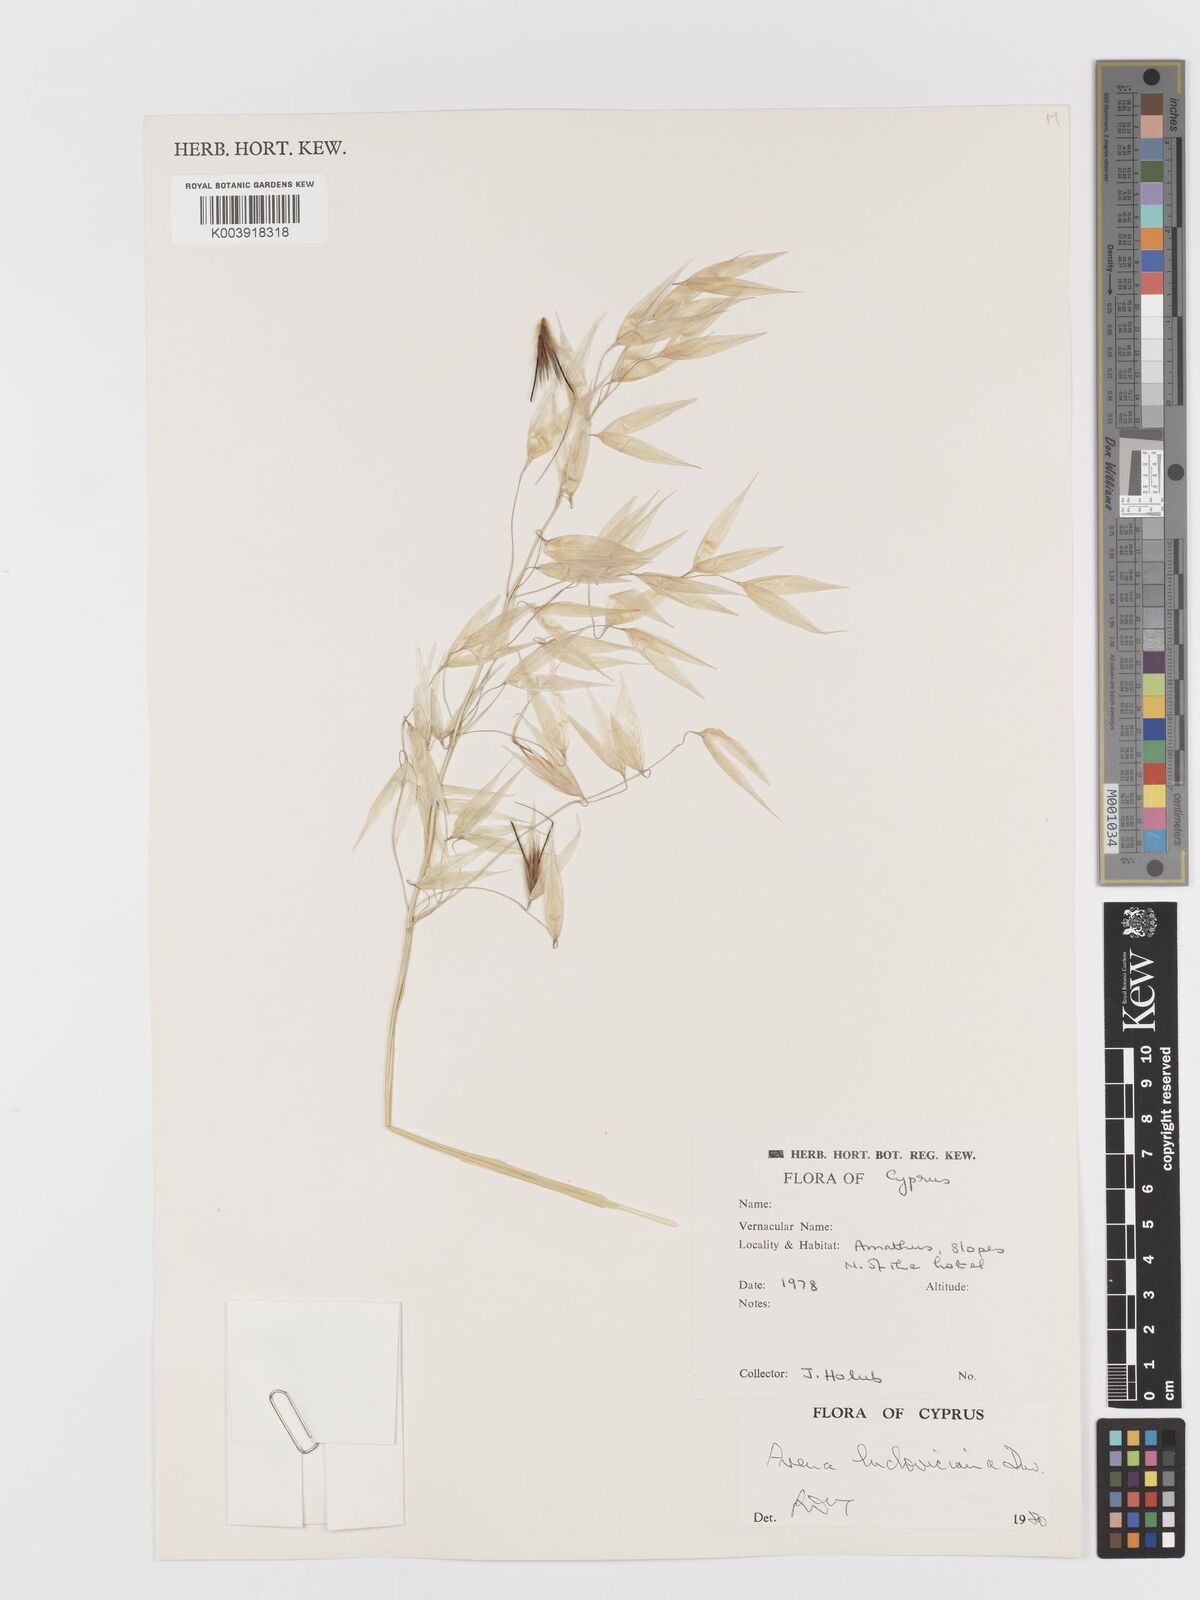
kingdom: Plantae
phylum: Tracheophyta
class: Liliopsida
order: Poales
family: Poaceae
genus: Avena
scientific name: Avena sterilis
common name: Animated oat
